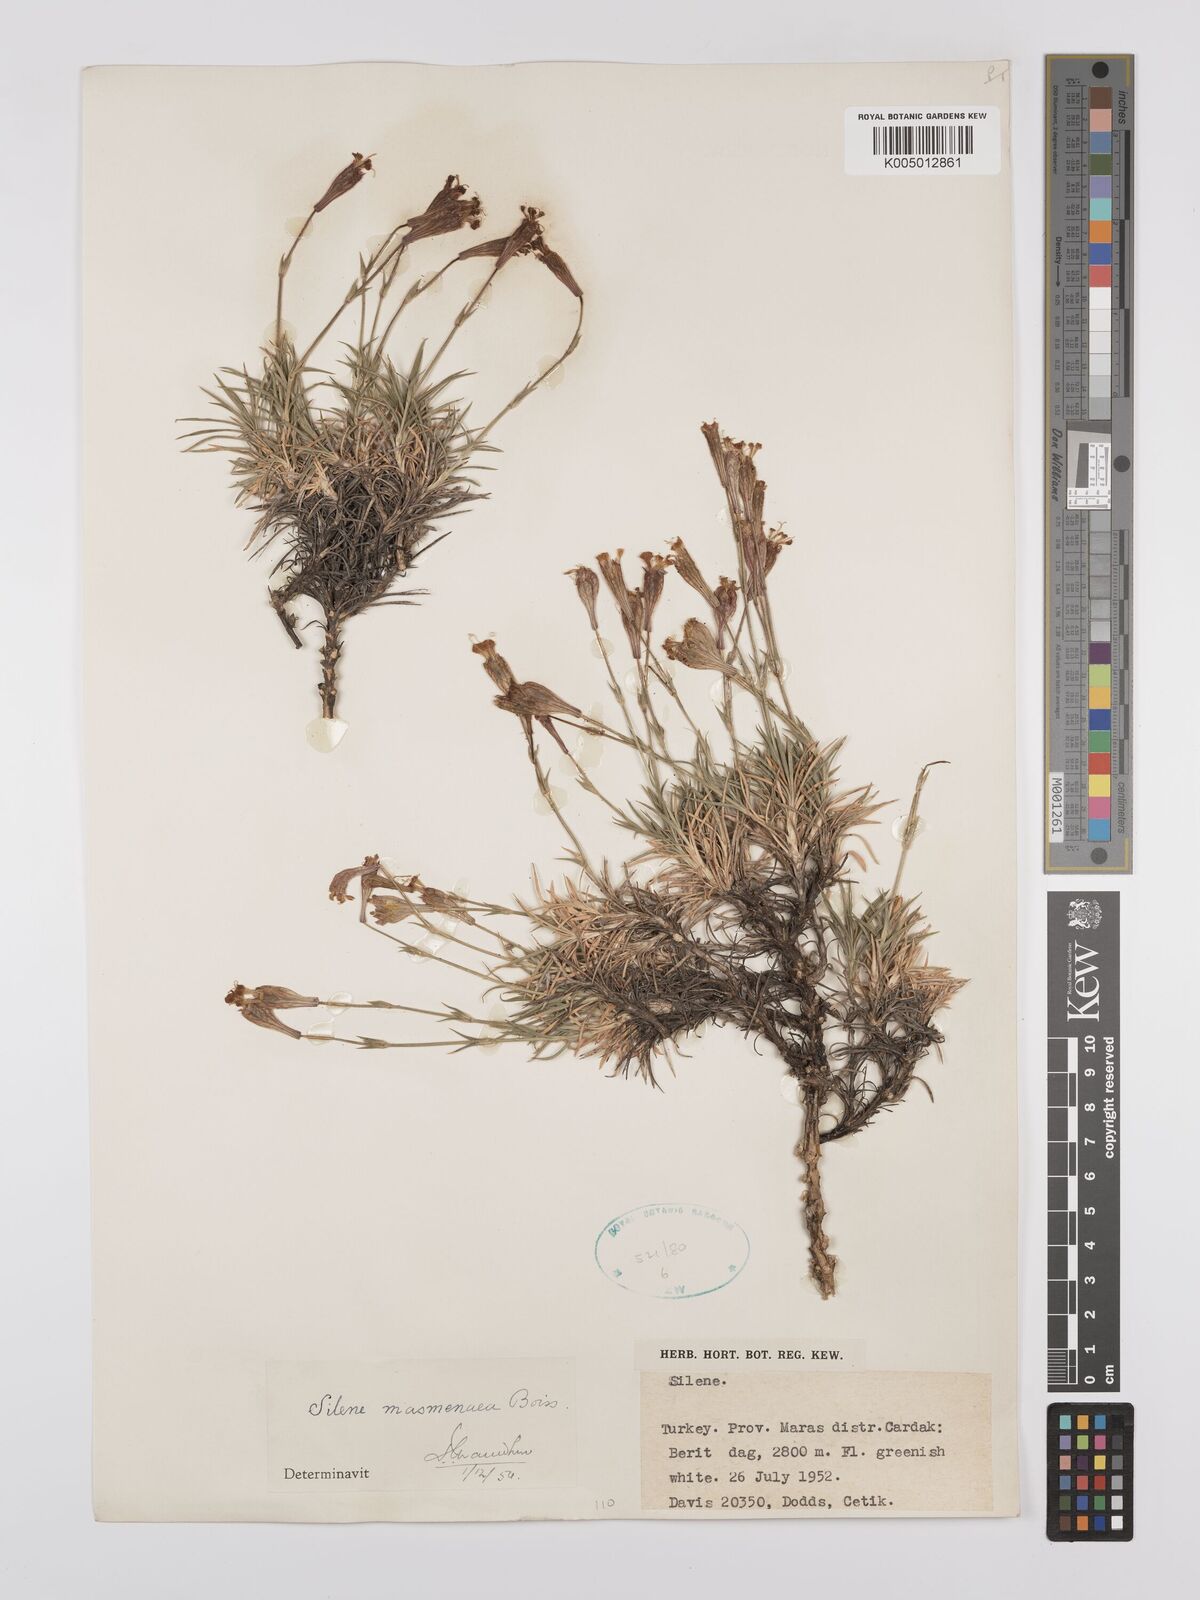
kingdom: Plantae
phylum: Tracheophyta
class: Magnoliopsida
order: Caryophyllales
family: Caryophyllaceae
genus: Silene
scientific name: Silene caryophylloides
